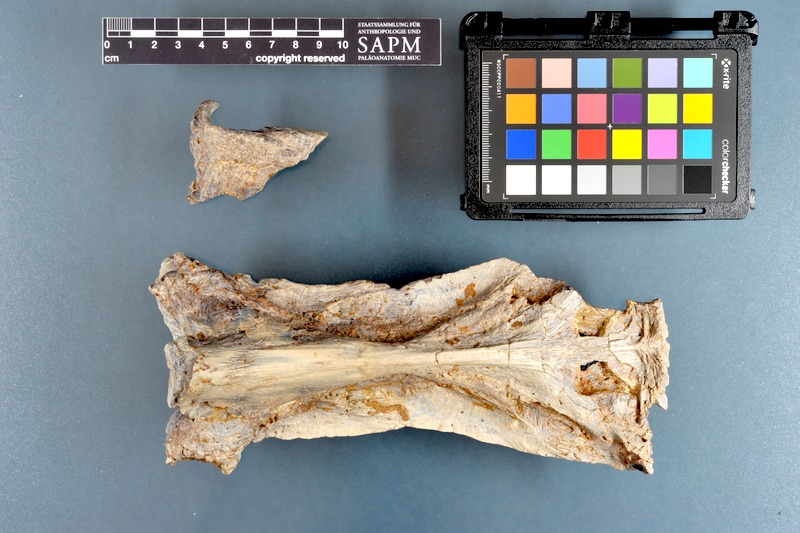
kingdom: Animalia
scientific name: Animalia
